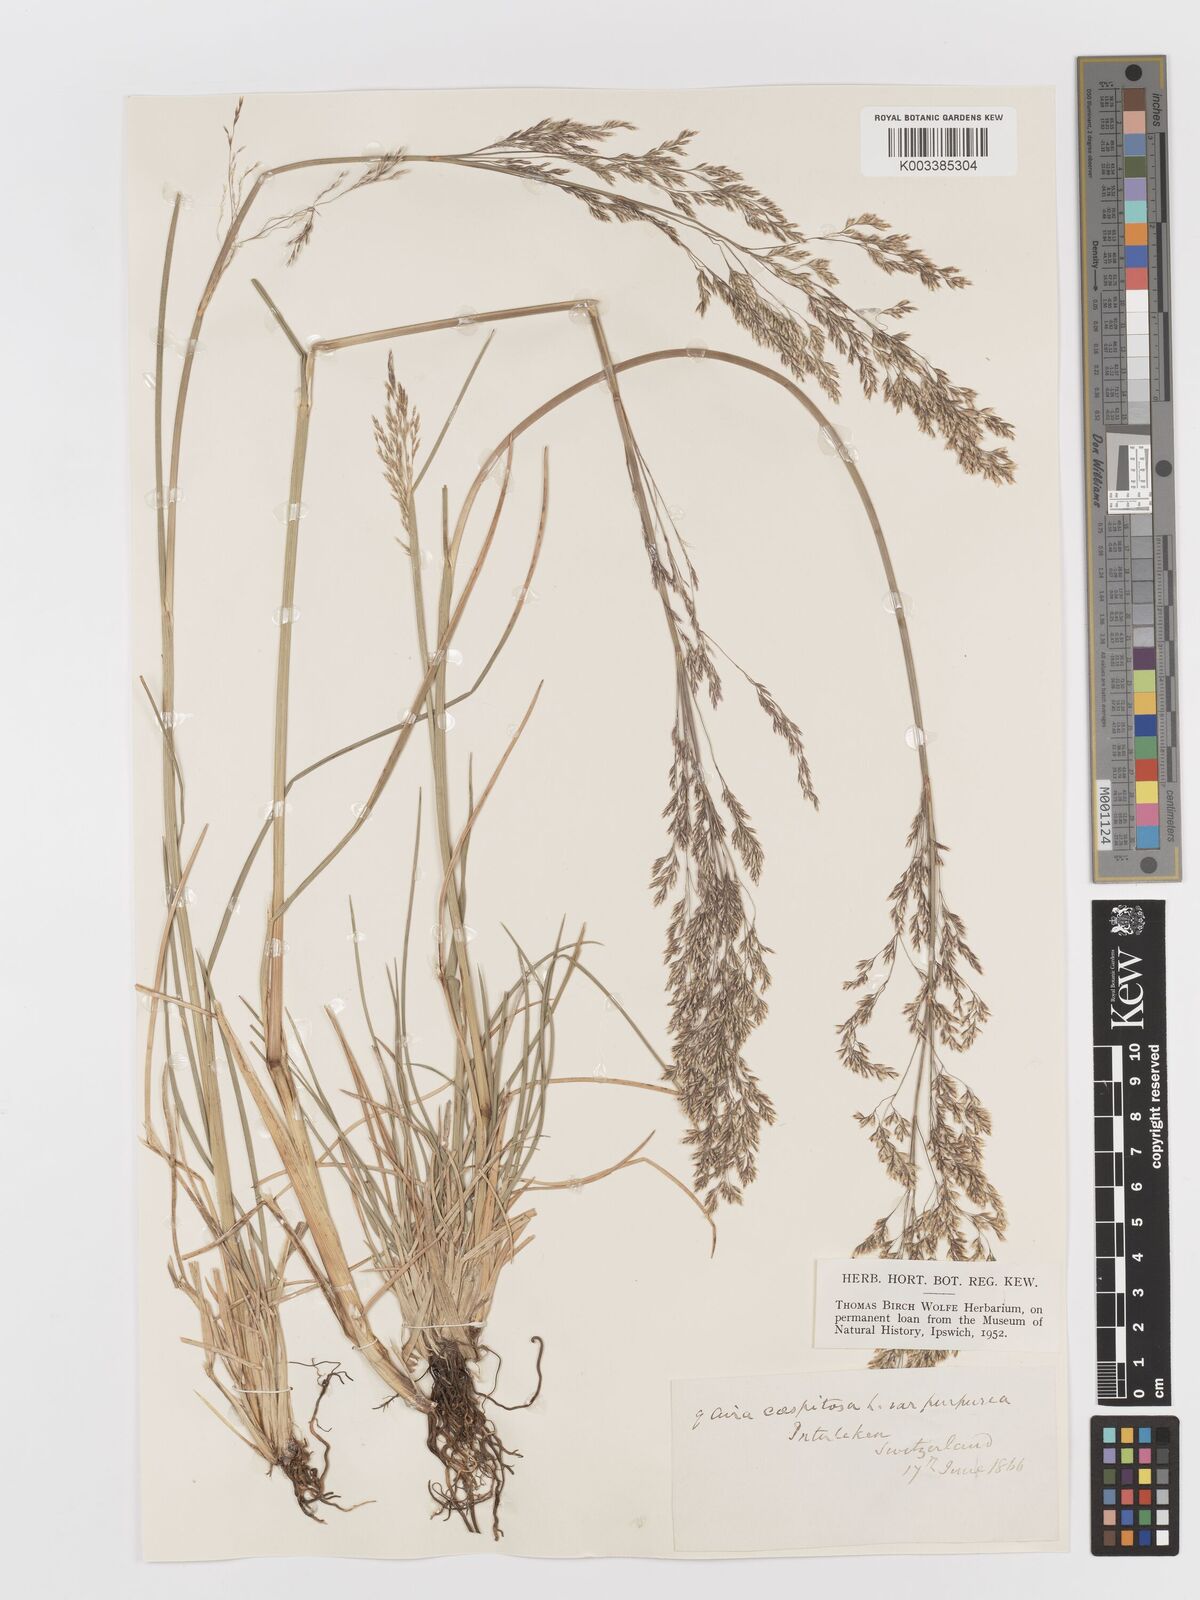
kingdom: Plantae
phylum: Tracheophyta
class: Liliopsida
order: Poales
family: Poaceae
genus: Deschampsia
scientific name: Deschampsia cespitosa
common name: Tufted hair-grass
